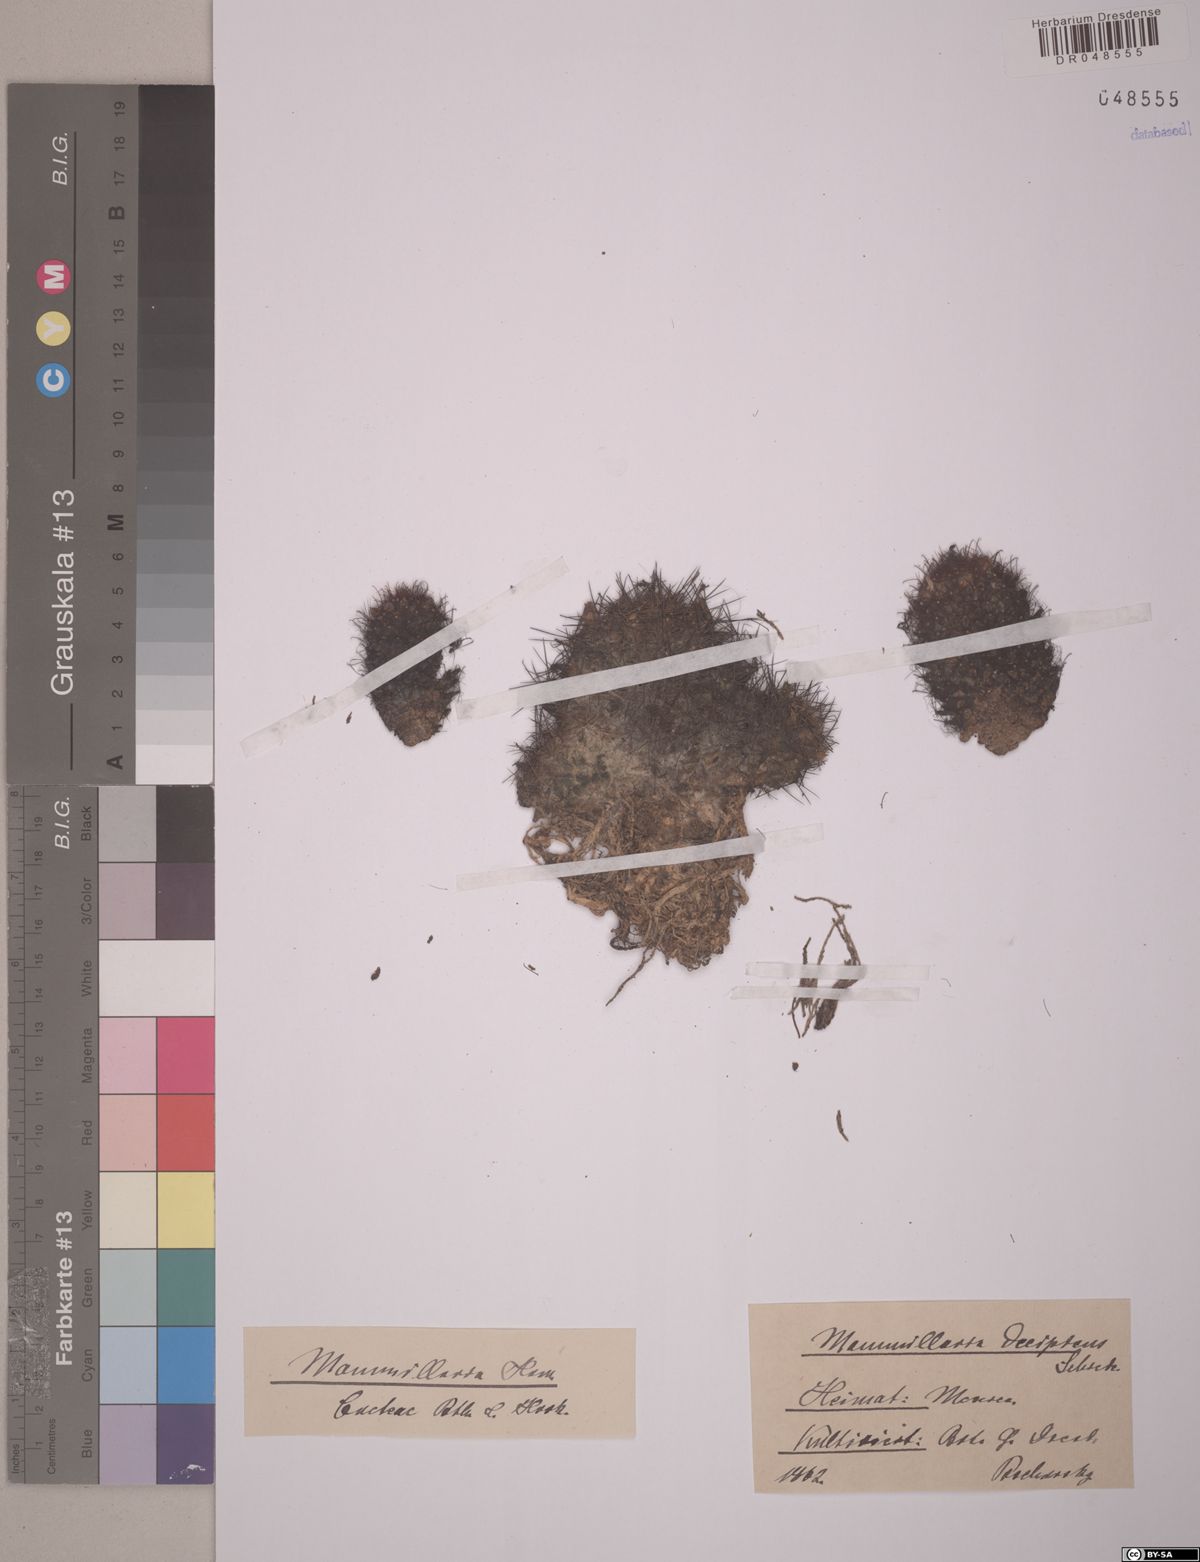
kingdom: Plantae
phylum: Tracheophyta
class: Magnoliopsida
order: Caryophyllales
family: Cactaceae
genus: Mammillaria
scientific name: Mammillaria decipiens
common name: Bird's-nest pincushion
